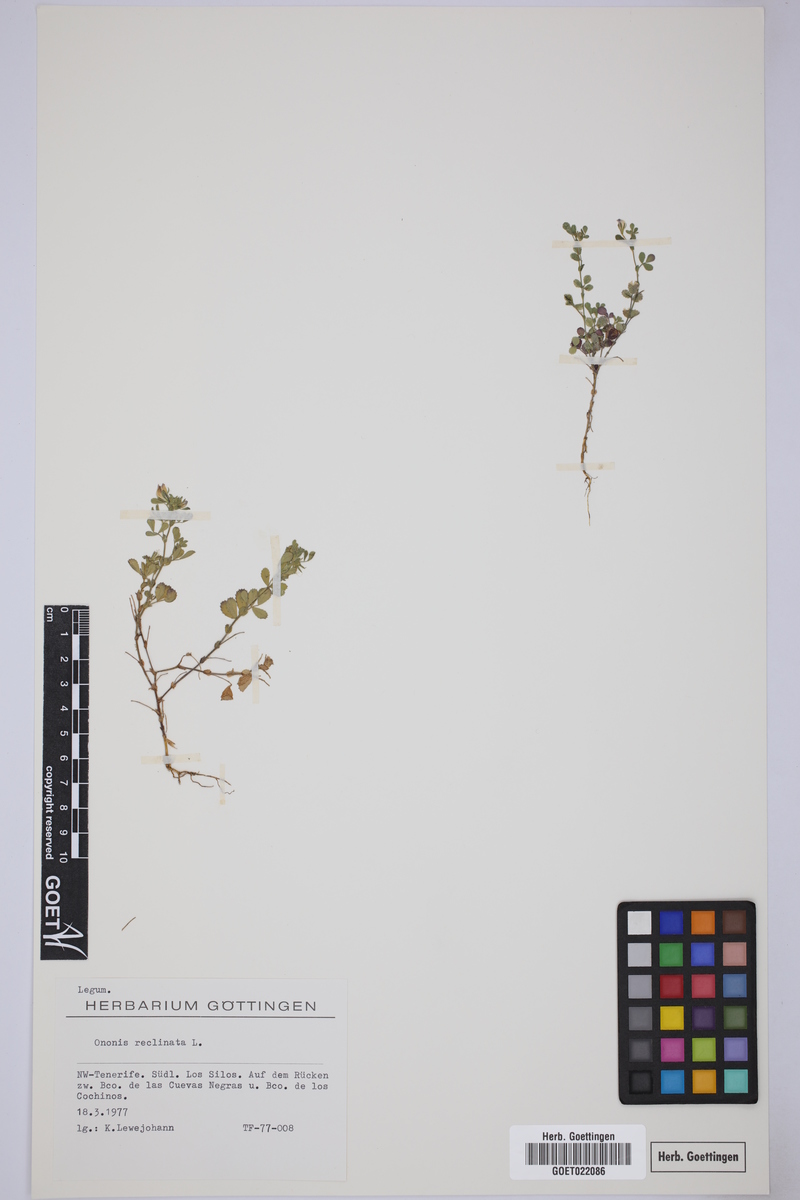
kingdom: Plantae
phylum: Tracheophyta
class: Magnoliopsida
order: Fabales
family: Fabaceae
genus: Ononis
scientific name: Ononis reclinata
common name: Small restharrow
